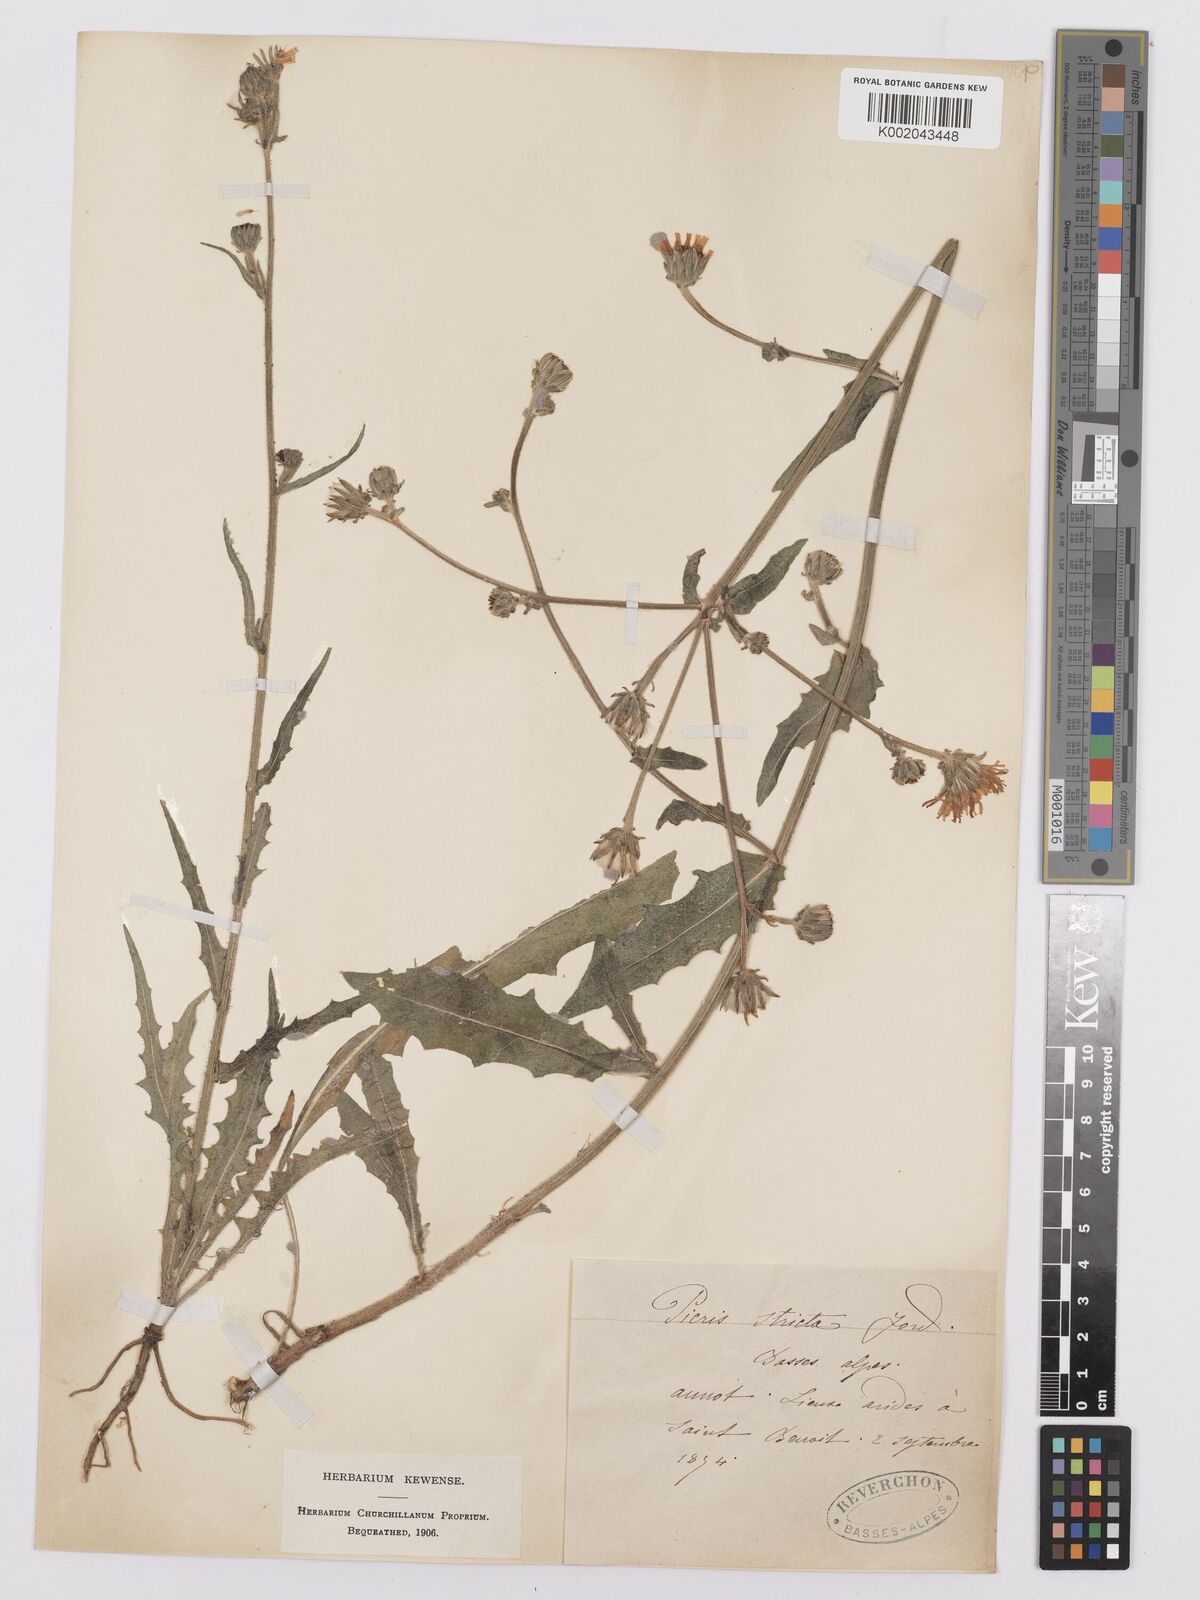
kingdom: Plantae
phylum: Tracheophyta
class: Magnoliopsida
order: Asterales
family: Asteraceae
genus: Picris
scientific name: Picris hieracioides
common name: Hawkweed oxtongue
